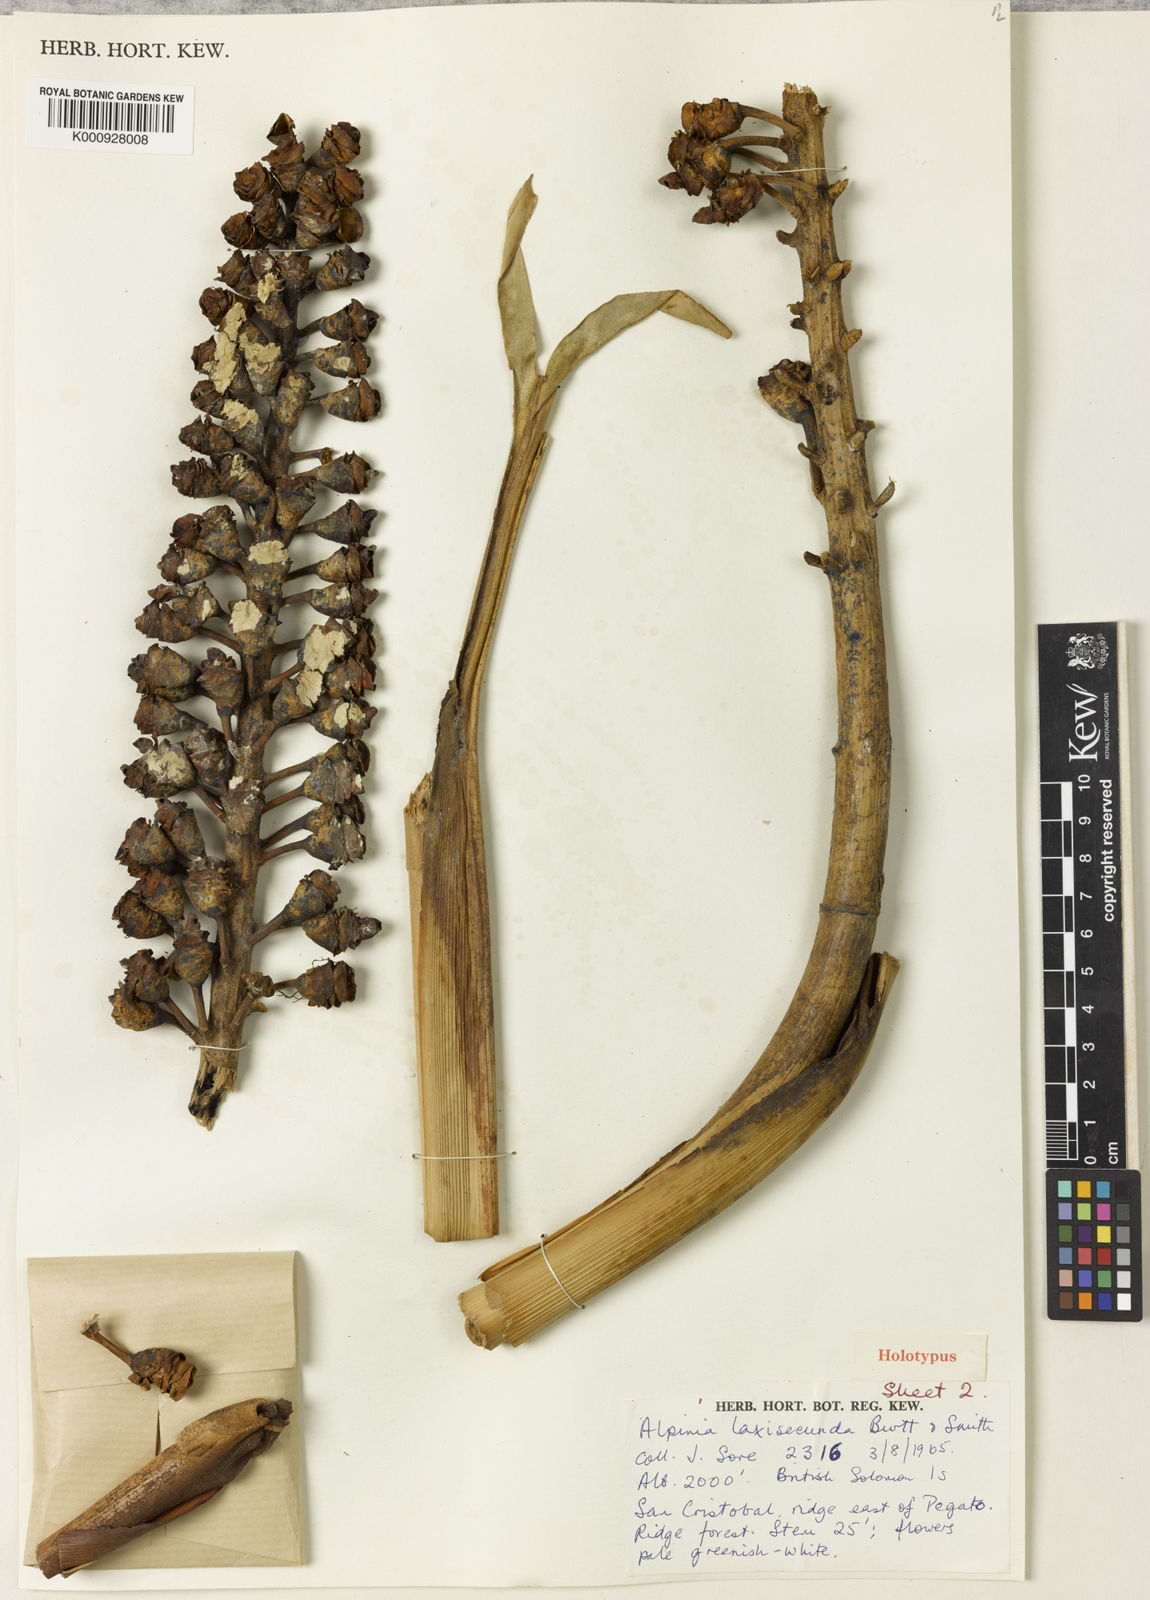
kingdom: Plantae
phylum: Tracheophyta
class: Liliopsida
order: Zingiberales
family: Zingiberaceae
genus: Alpinia
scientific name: Alpinia laxisecunda
